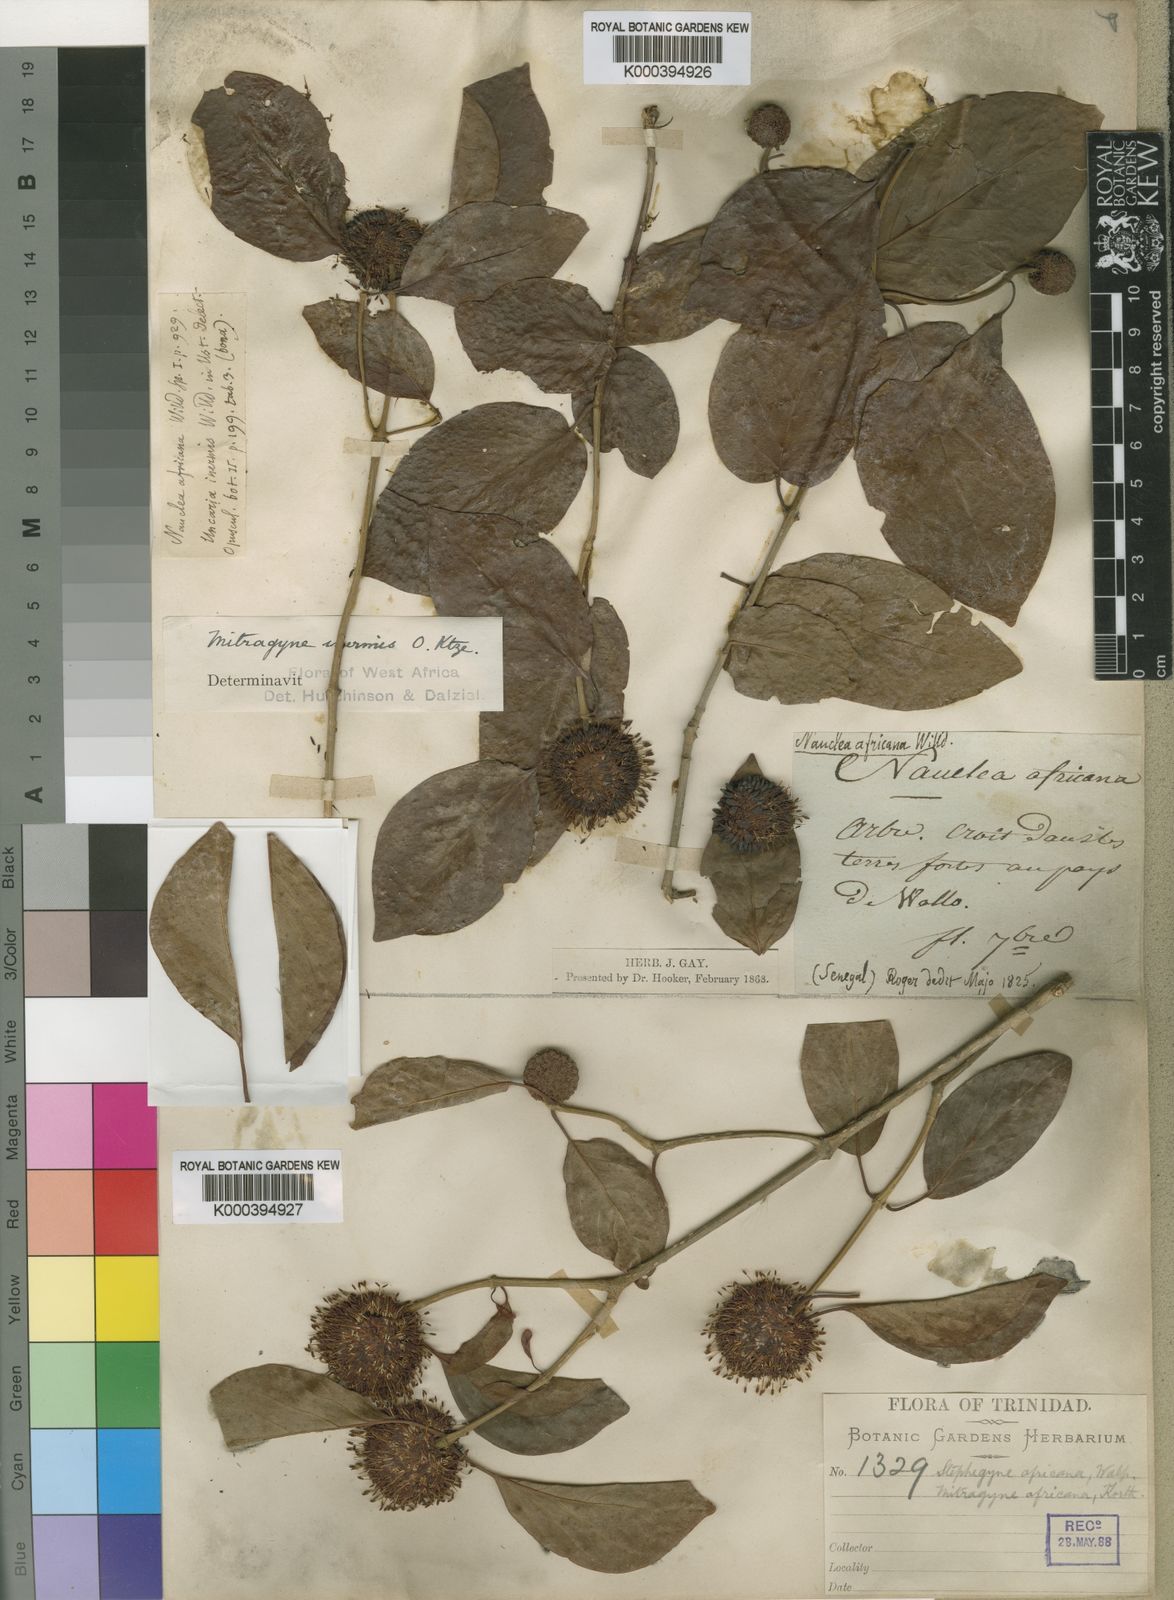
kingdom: Plantae
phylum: Tracheophyta
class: Magnoliopsida
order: Gentianales
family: Rubiaceae
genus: Mitragyna
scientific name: Mitragyna inermis
